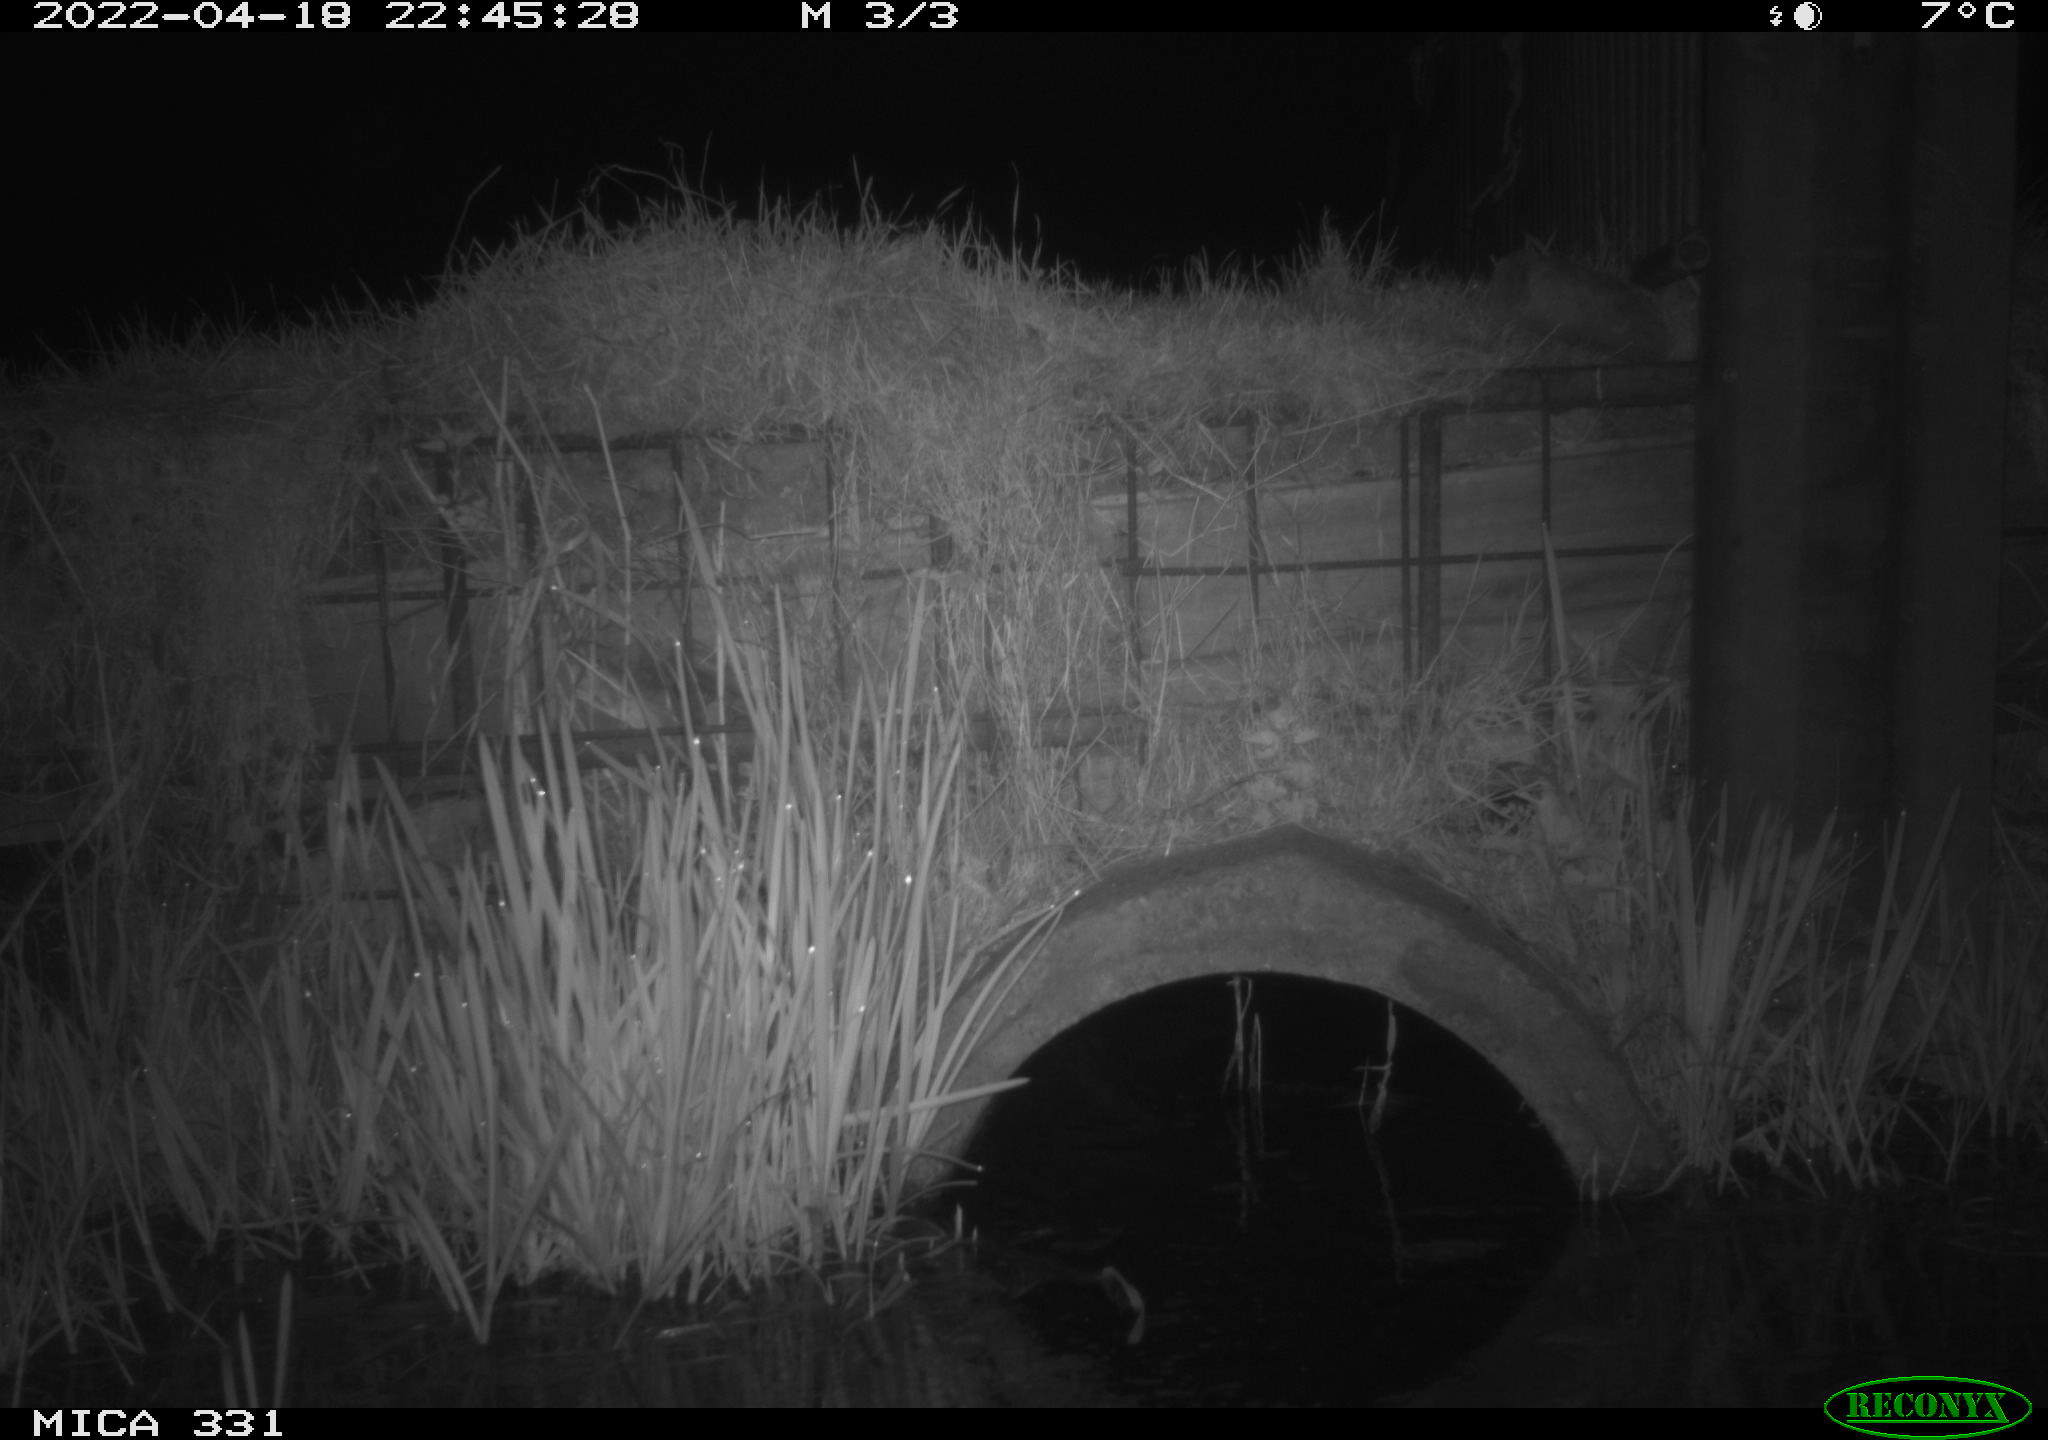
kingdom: Animalia
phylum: Chordata
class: Mammalia
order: Rodentia
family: Muridae
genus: Rattus
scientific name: Rattus norvegicus
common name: Brown rat
